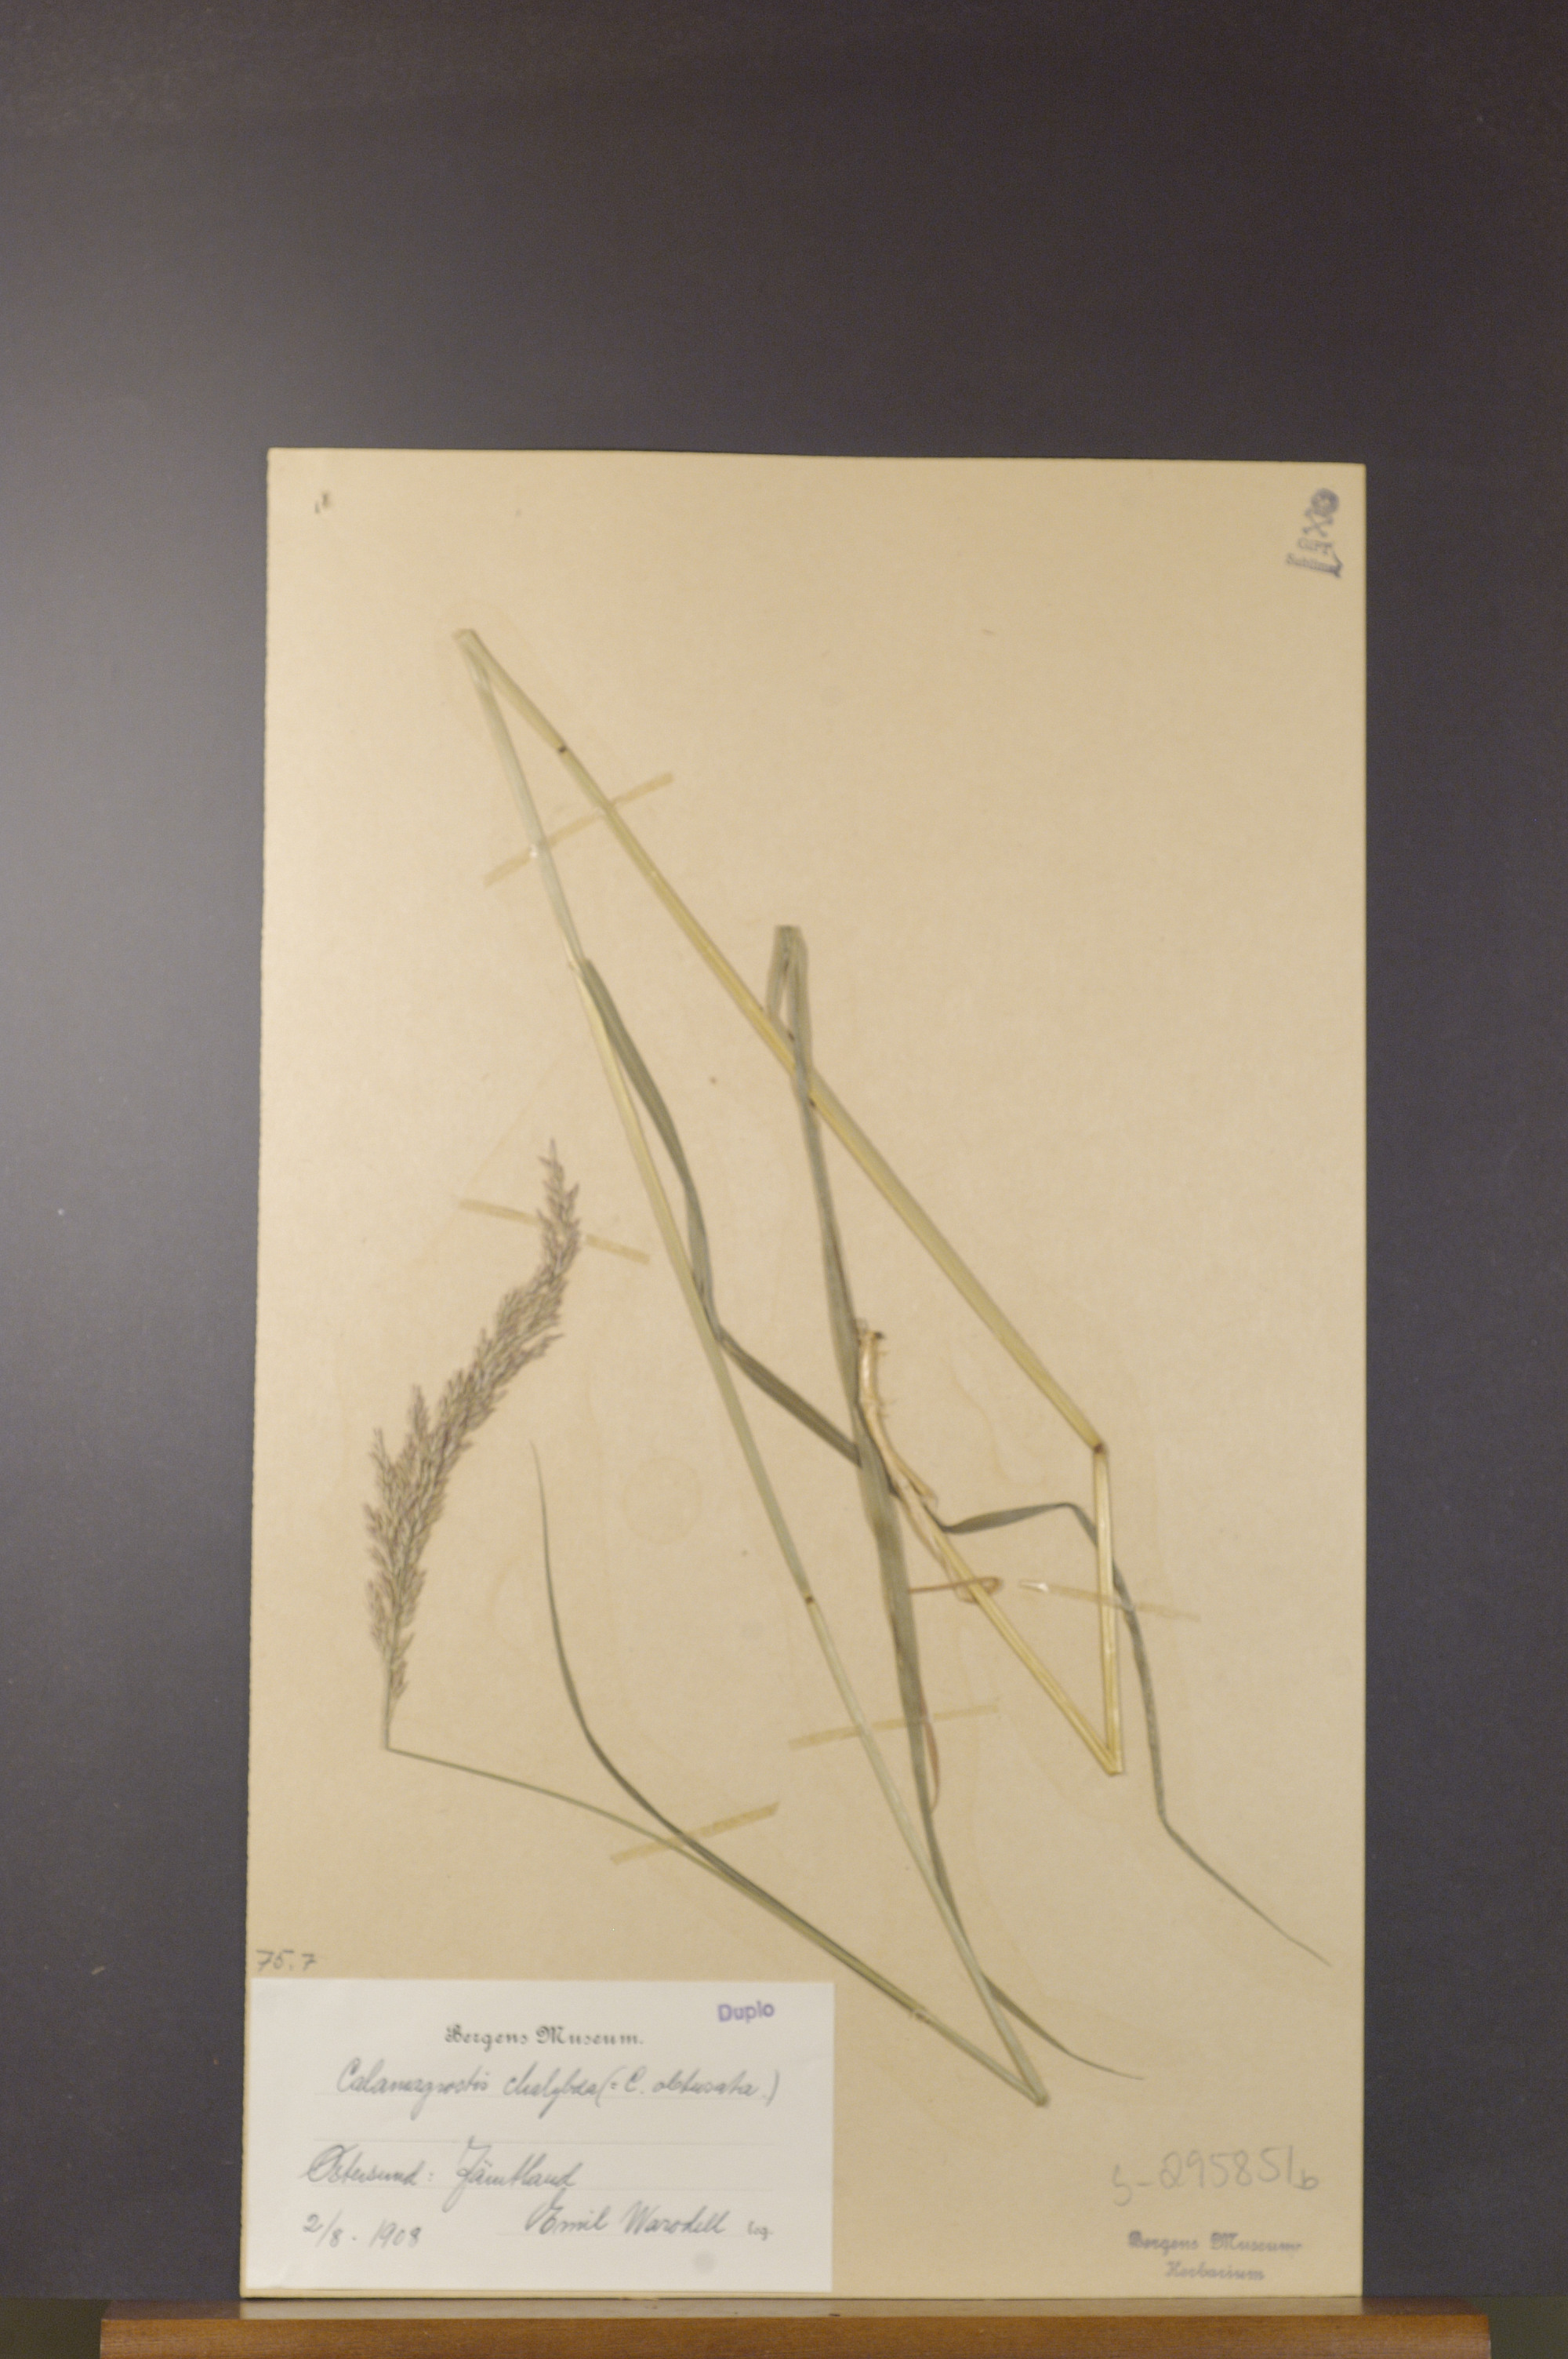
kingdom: Plantae
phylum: Tracheophyta
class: Liliopsida
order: Poales
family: Poaceae
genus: Calamagrostis
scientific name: Calamagrostis chalybaea
